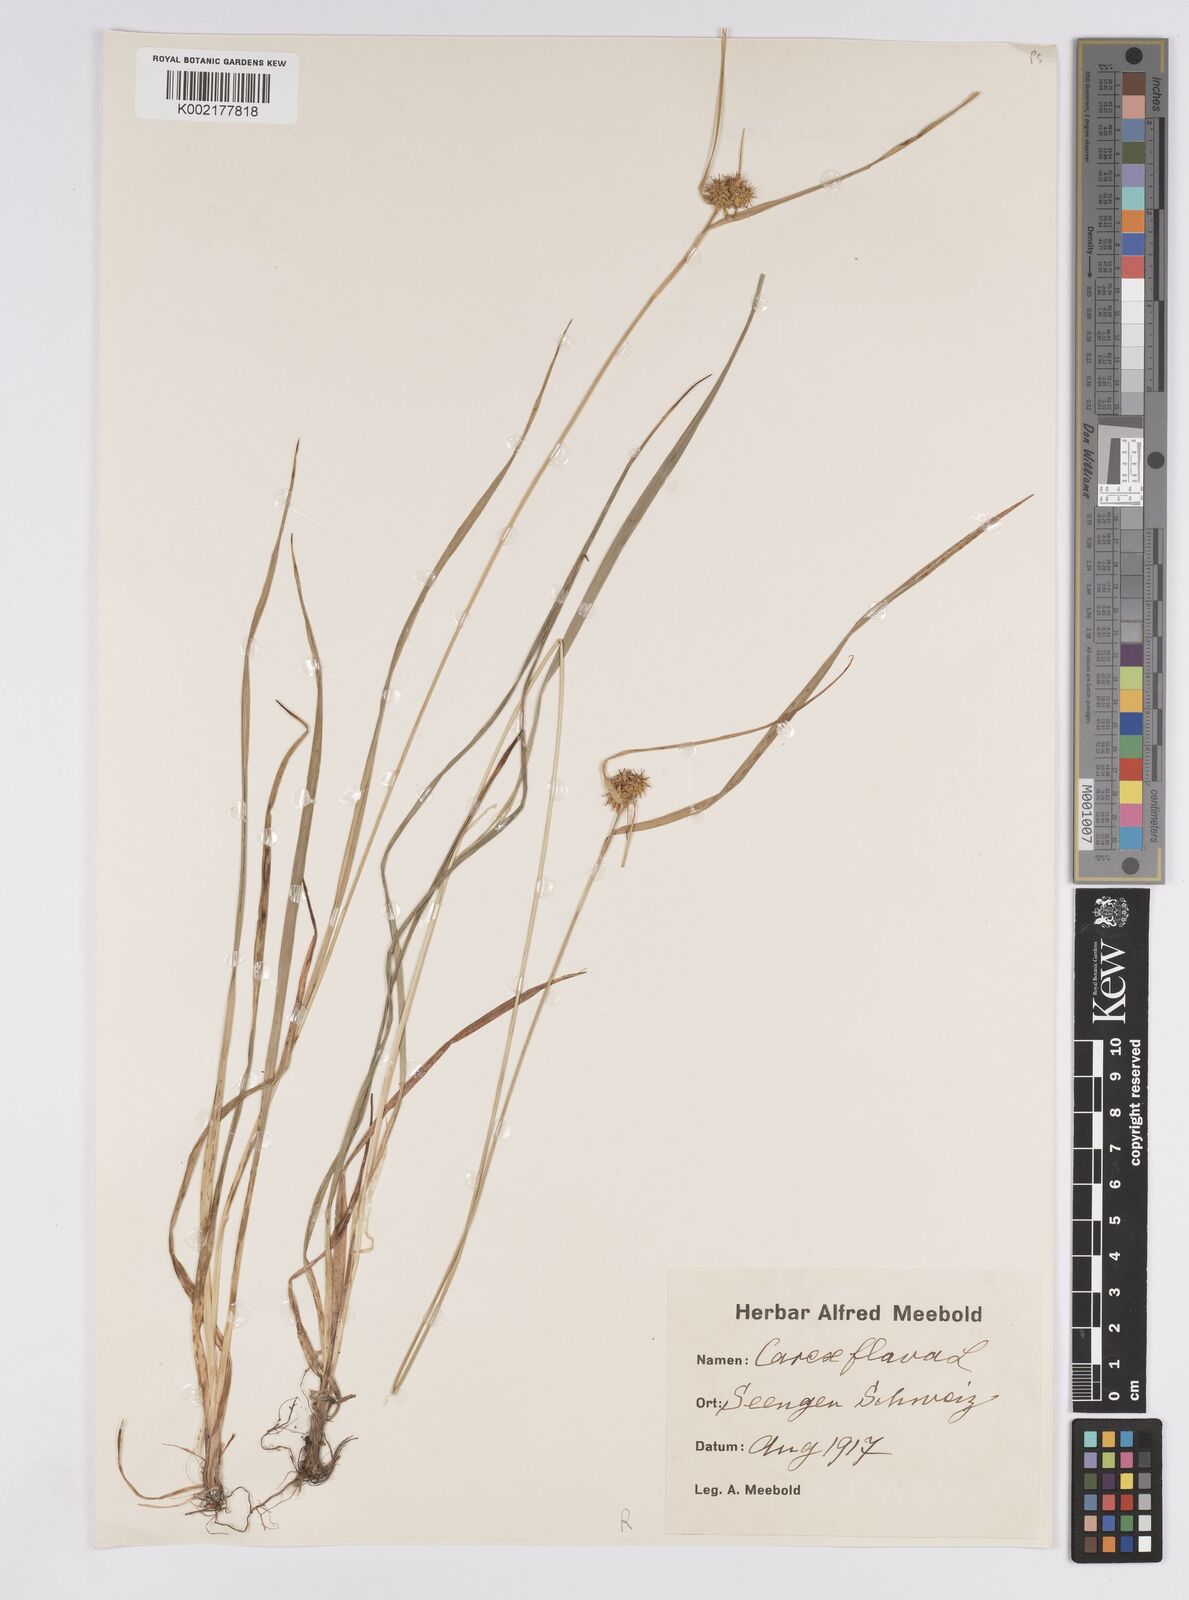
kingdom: Plantae
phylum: Tracheophyta
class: Liliopsida
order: Poales
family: Cyperaceae
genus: Carex
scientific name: Carex flava
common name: Large yellow-sedge
